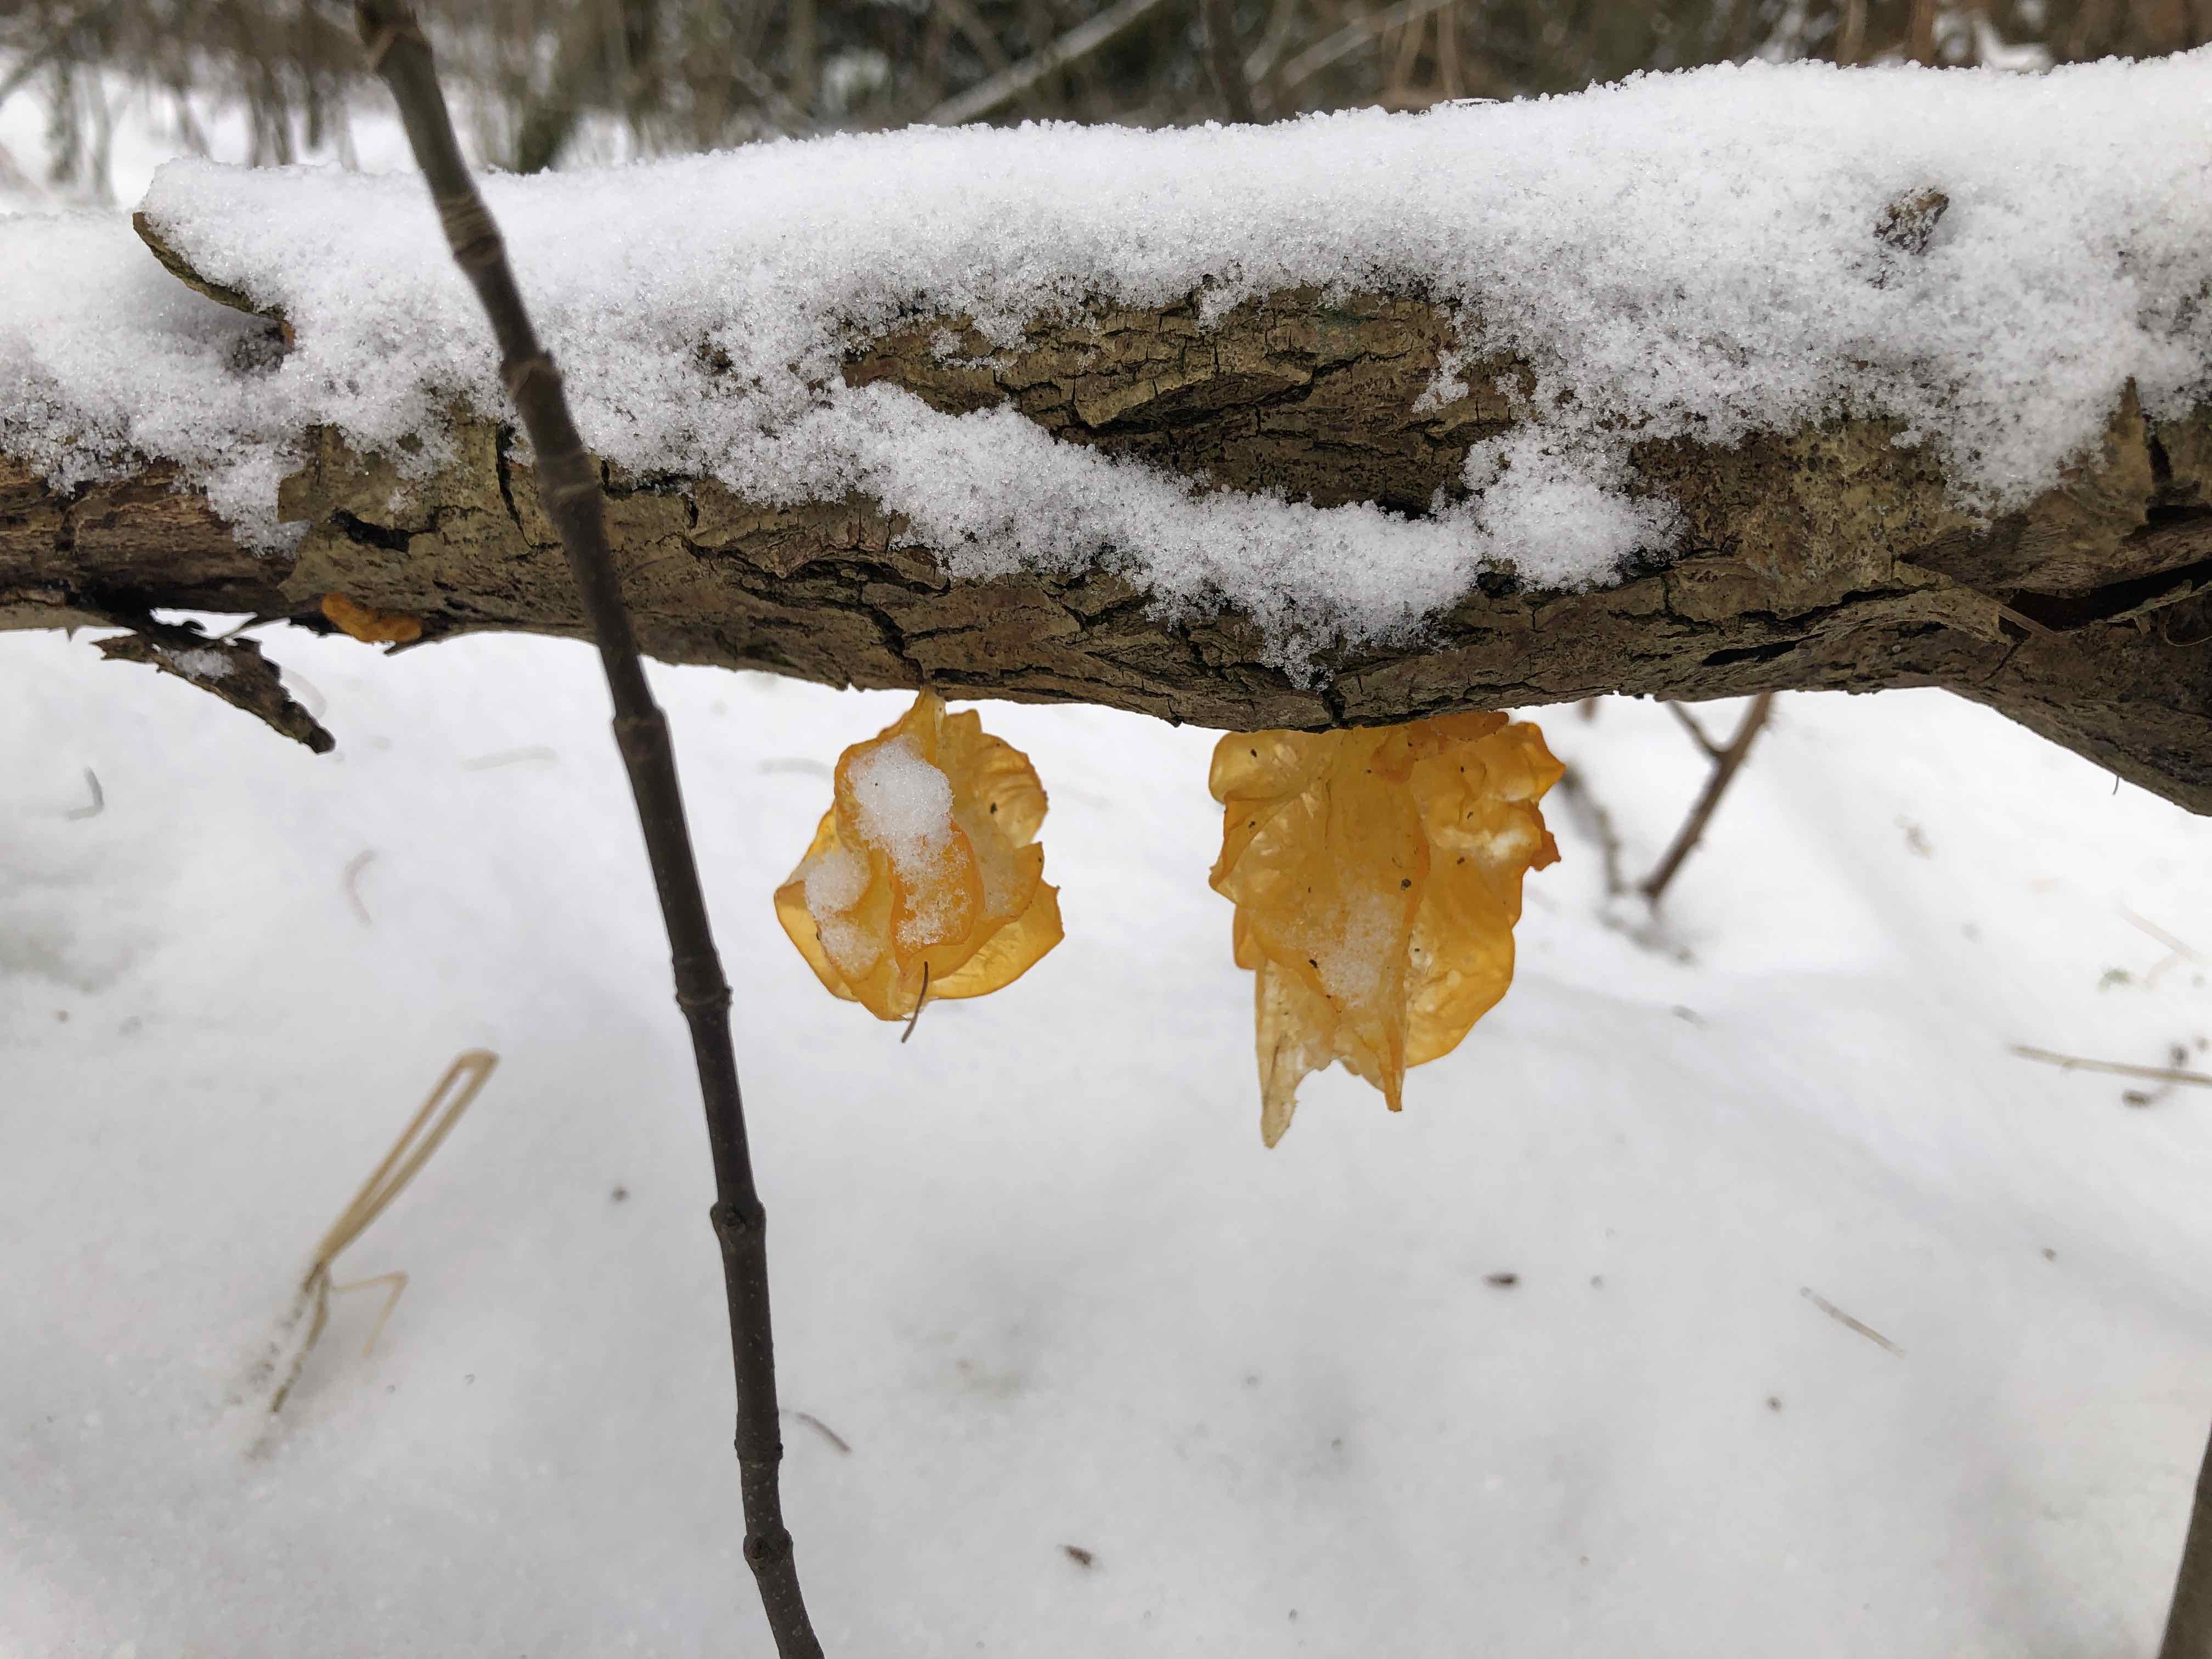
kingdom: Fungi
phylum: Basidiomycota
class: Tremellomycetes
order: Tremellales
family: Tremellaceae
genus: Tremella
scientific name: Tremella mesenterica
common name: gul bævresvamp
